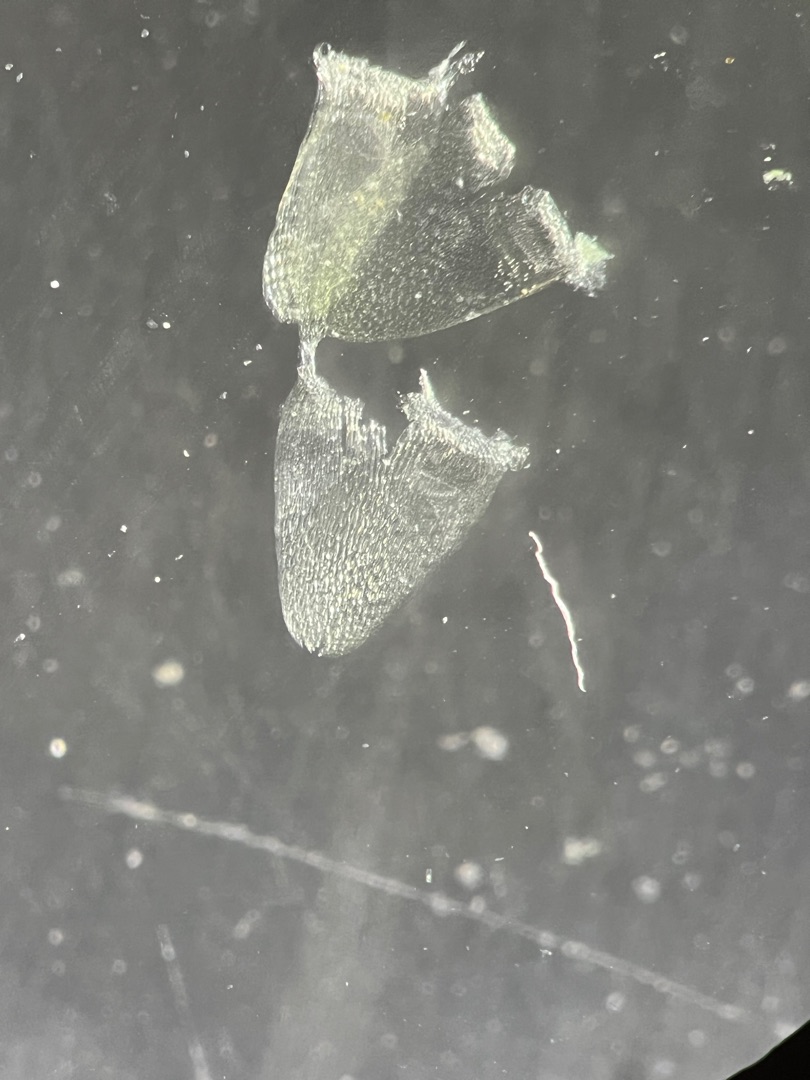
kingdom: Plantae
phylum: Bryophyta
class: Sphagnopsida
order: Sphagnales
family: Sphagnaceae
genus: Sphagnum
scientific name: Sphagnum obtusum
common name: Småporet tørvemos
